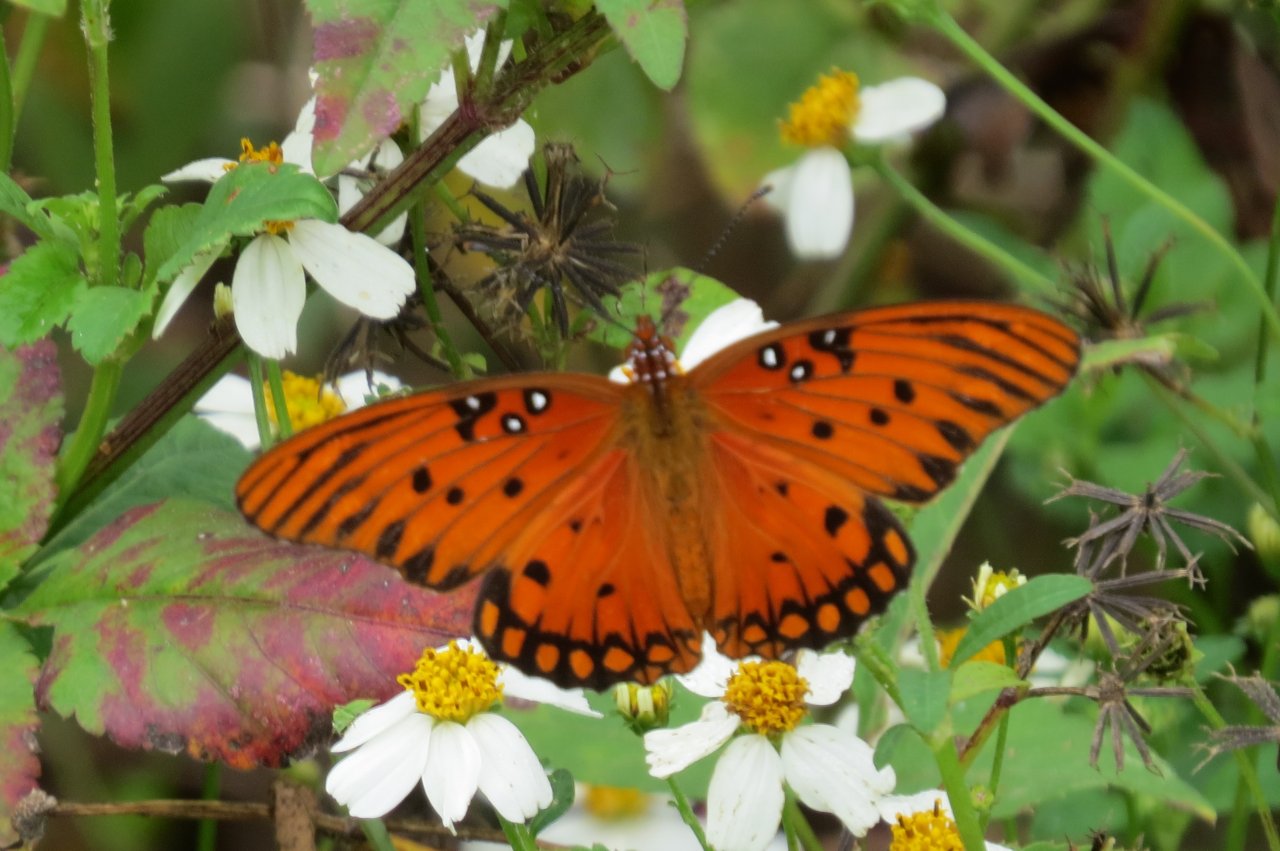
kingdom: Animalia
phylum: Arthropoda
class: Insecta
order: Lepidoptera
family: Nymphalidae
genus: Dione
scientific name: Dione vanillae
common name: Gulf Fritillary
